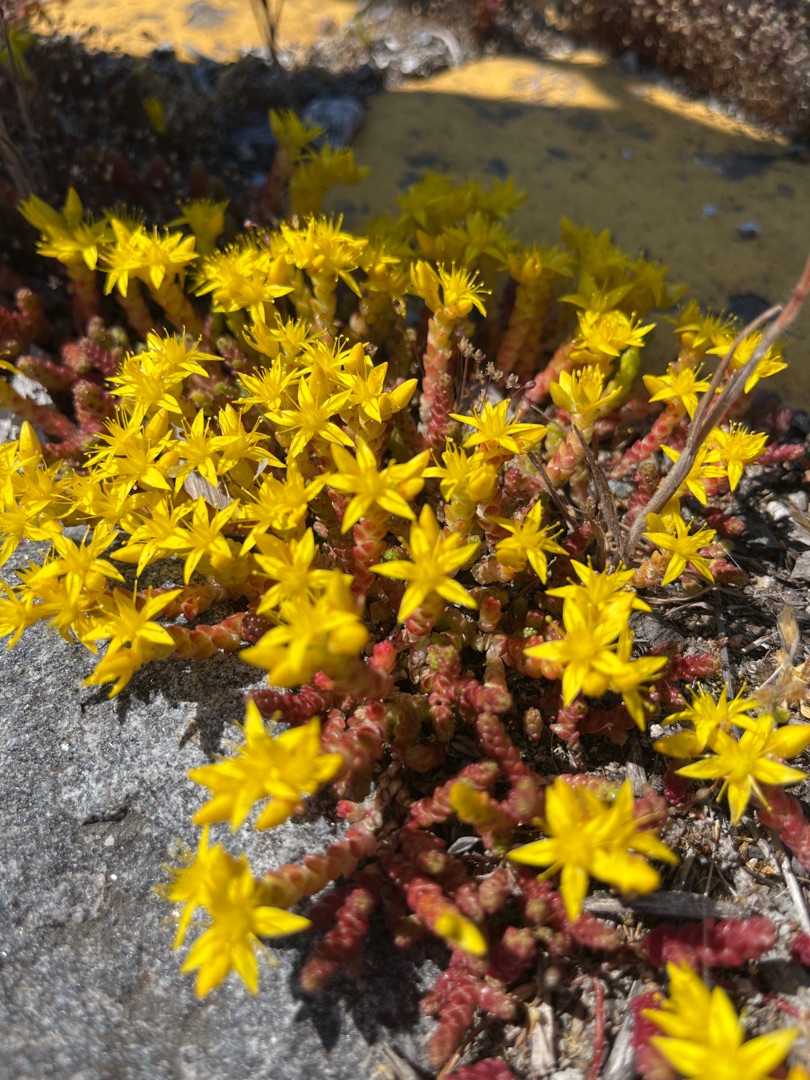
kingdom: Plantae
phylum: Tracheophyta
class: Magnoliopsida
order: Saxifragales
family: Crassulaceae
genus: Sedum
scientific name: Sedum acre
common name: Bidende stenurt
